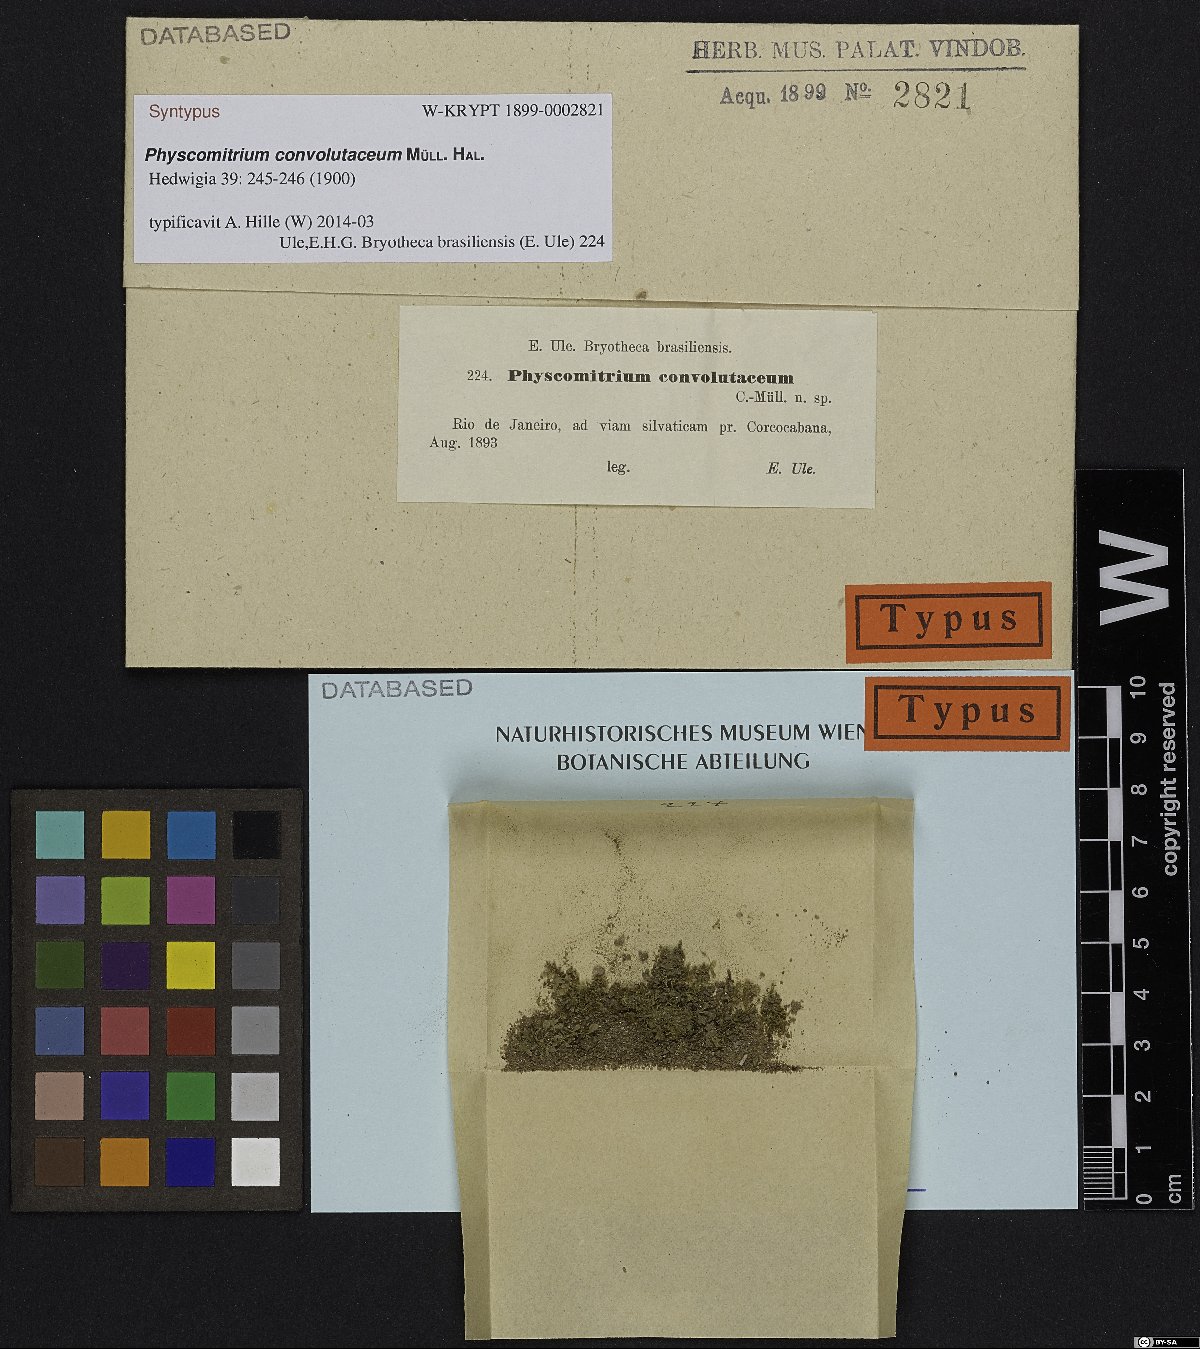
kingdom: Plantae
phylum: Bryophyta
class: Bryopsida
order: Funariales
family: Funariaceae
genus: Physcomitrium
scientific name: Physcomitrium thieleanum
